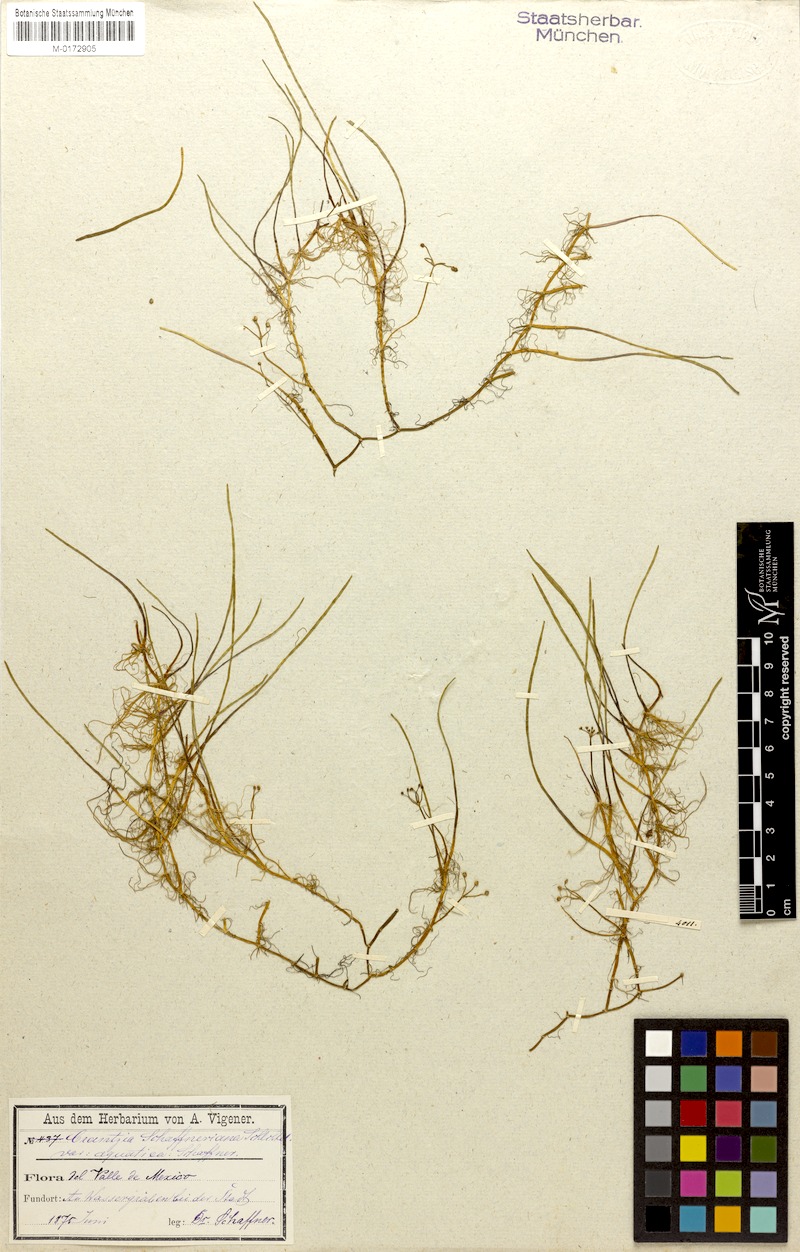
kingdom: Plantae
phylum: Tracheophyta
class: Magnoliopsida
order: Apiales
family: Apiaceae
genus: Lilaeopsis
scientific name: Lilaeopsis schaffneriana
